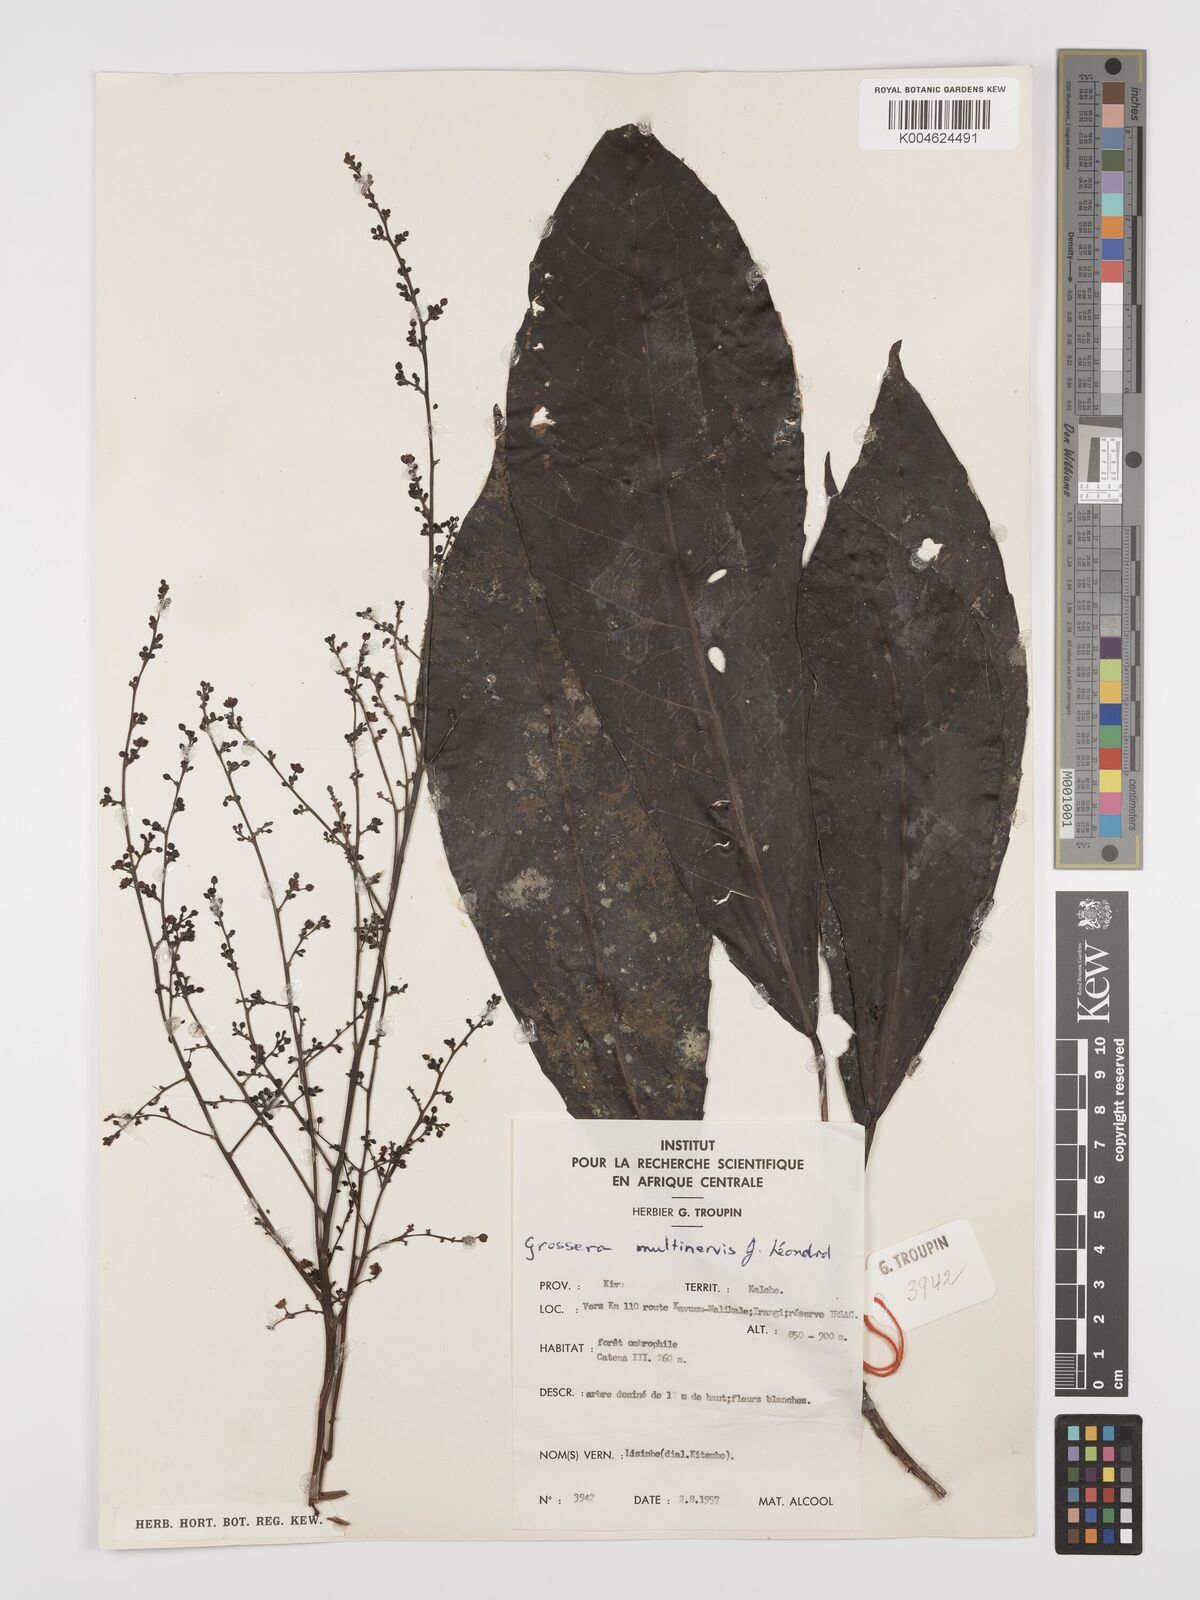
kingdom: Plantae
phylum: Tracheophyta
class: Magnoliopsida
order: Malpighiales
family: Euphorbiaceae
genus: Grossera
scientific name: Grossera multinervis
